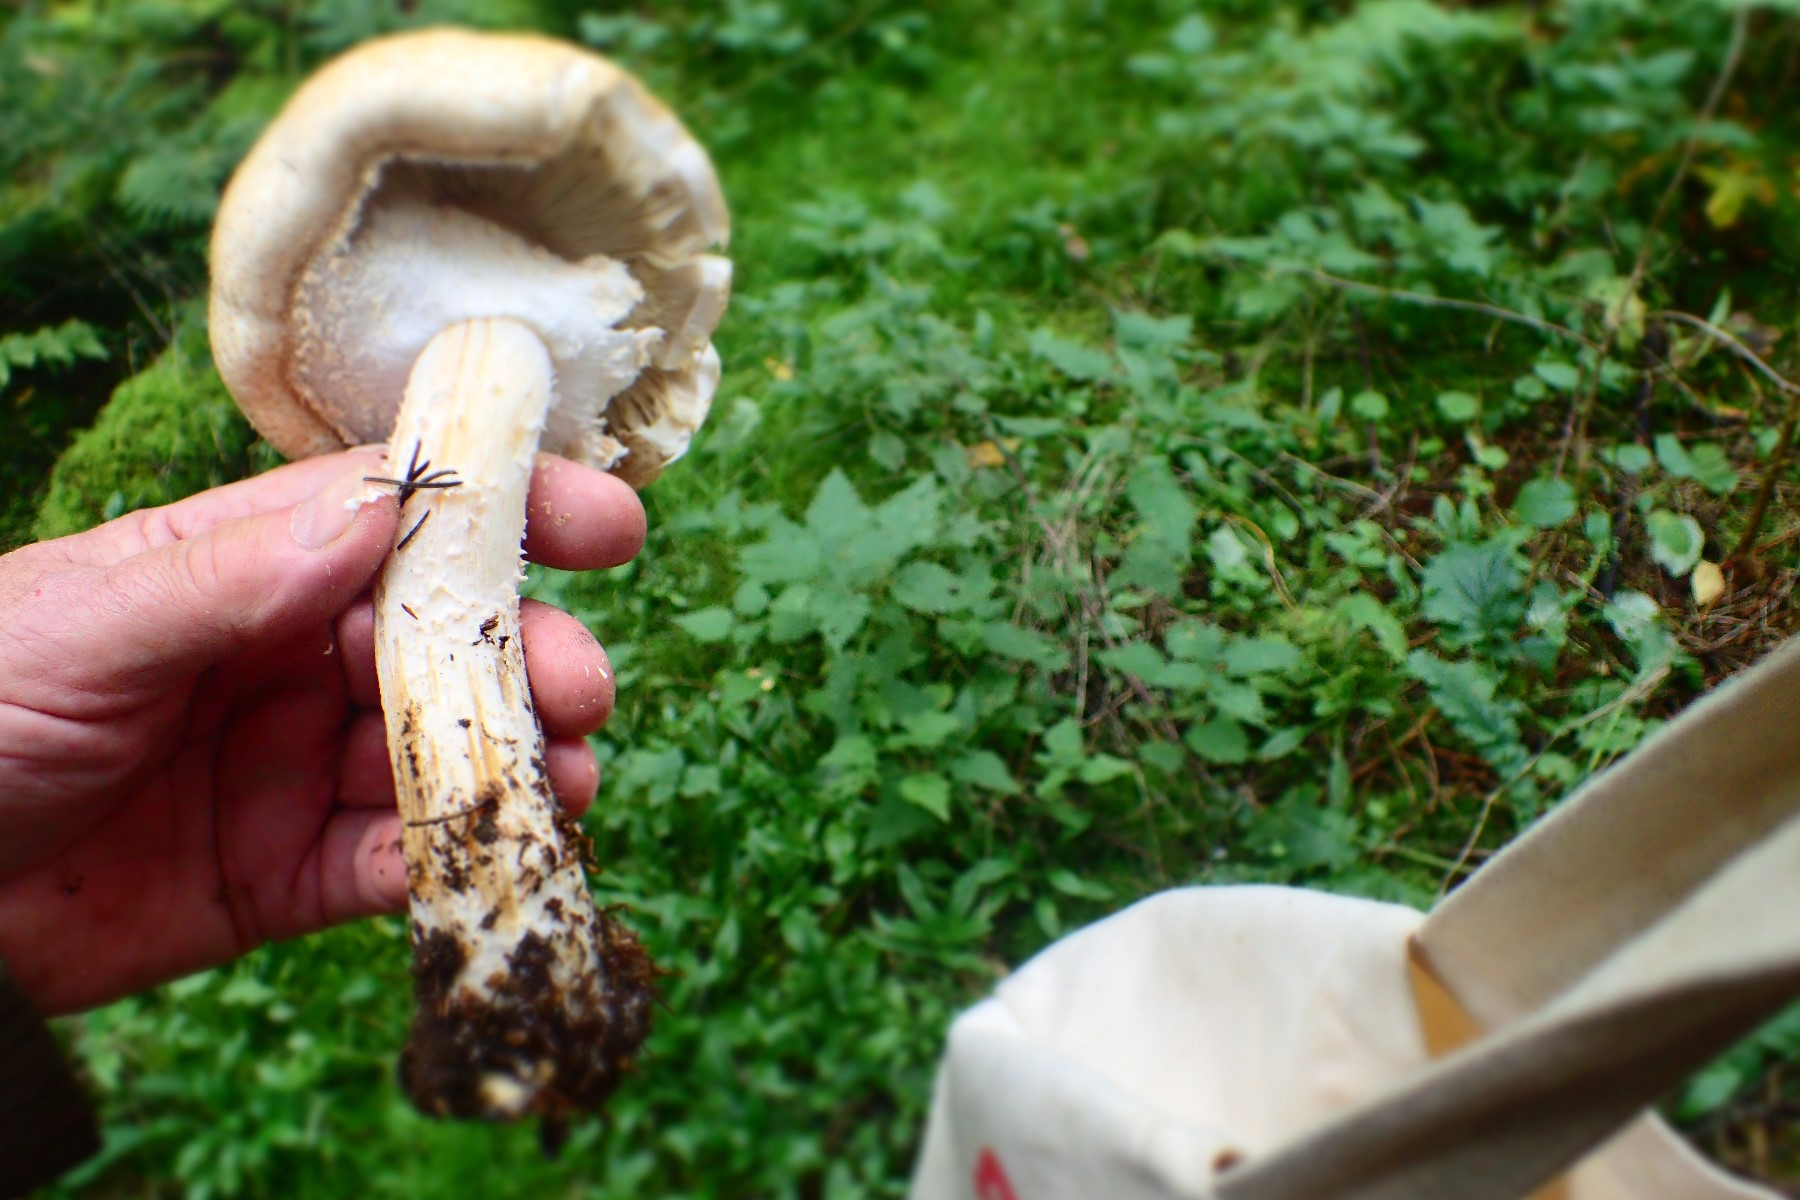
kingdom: Fungi
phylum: Basidiomycota
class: Agaricomycetes
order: Agaricales
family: Agaricaceae
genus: Agaricus
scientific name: Agaricus augustus
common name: prægtig champignon
